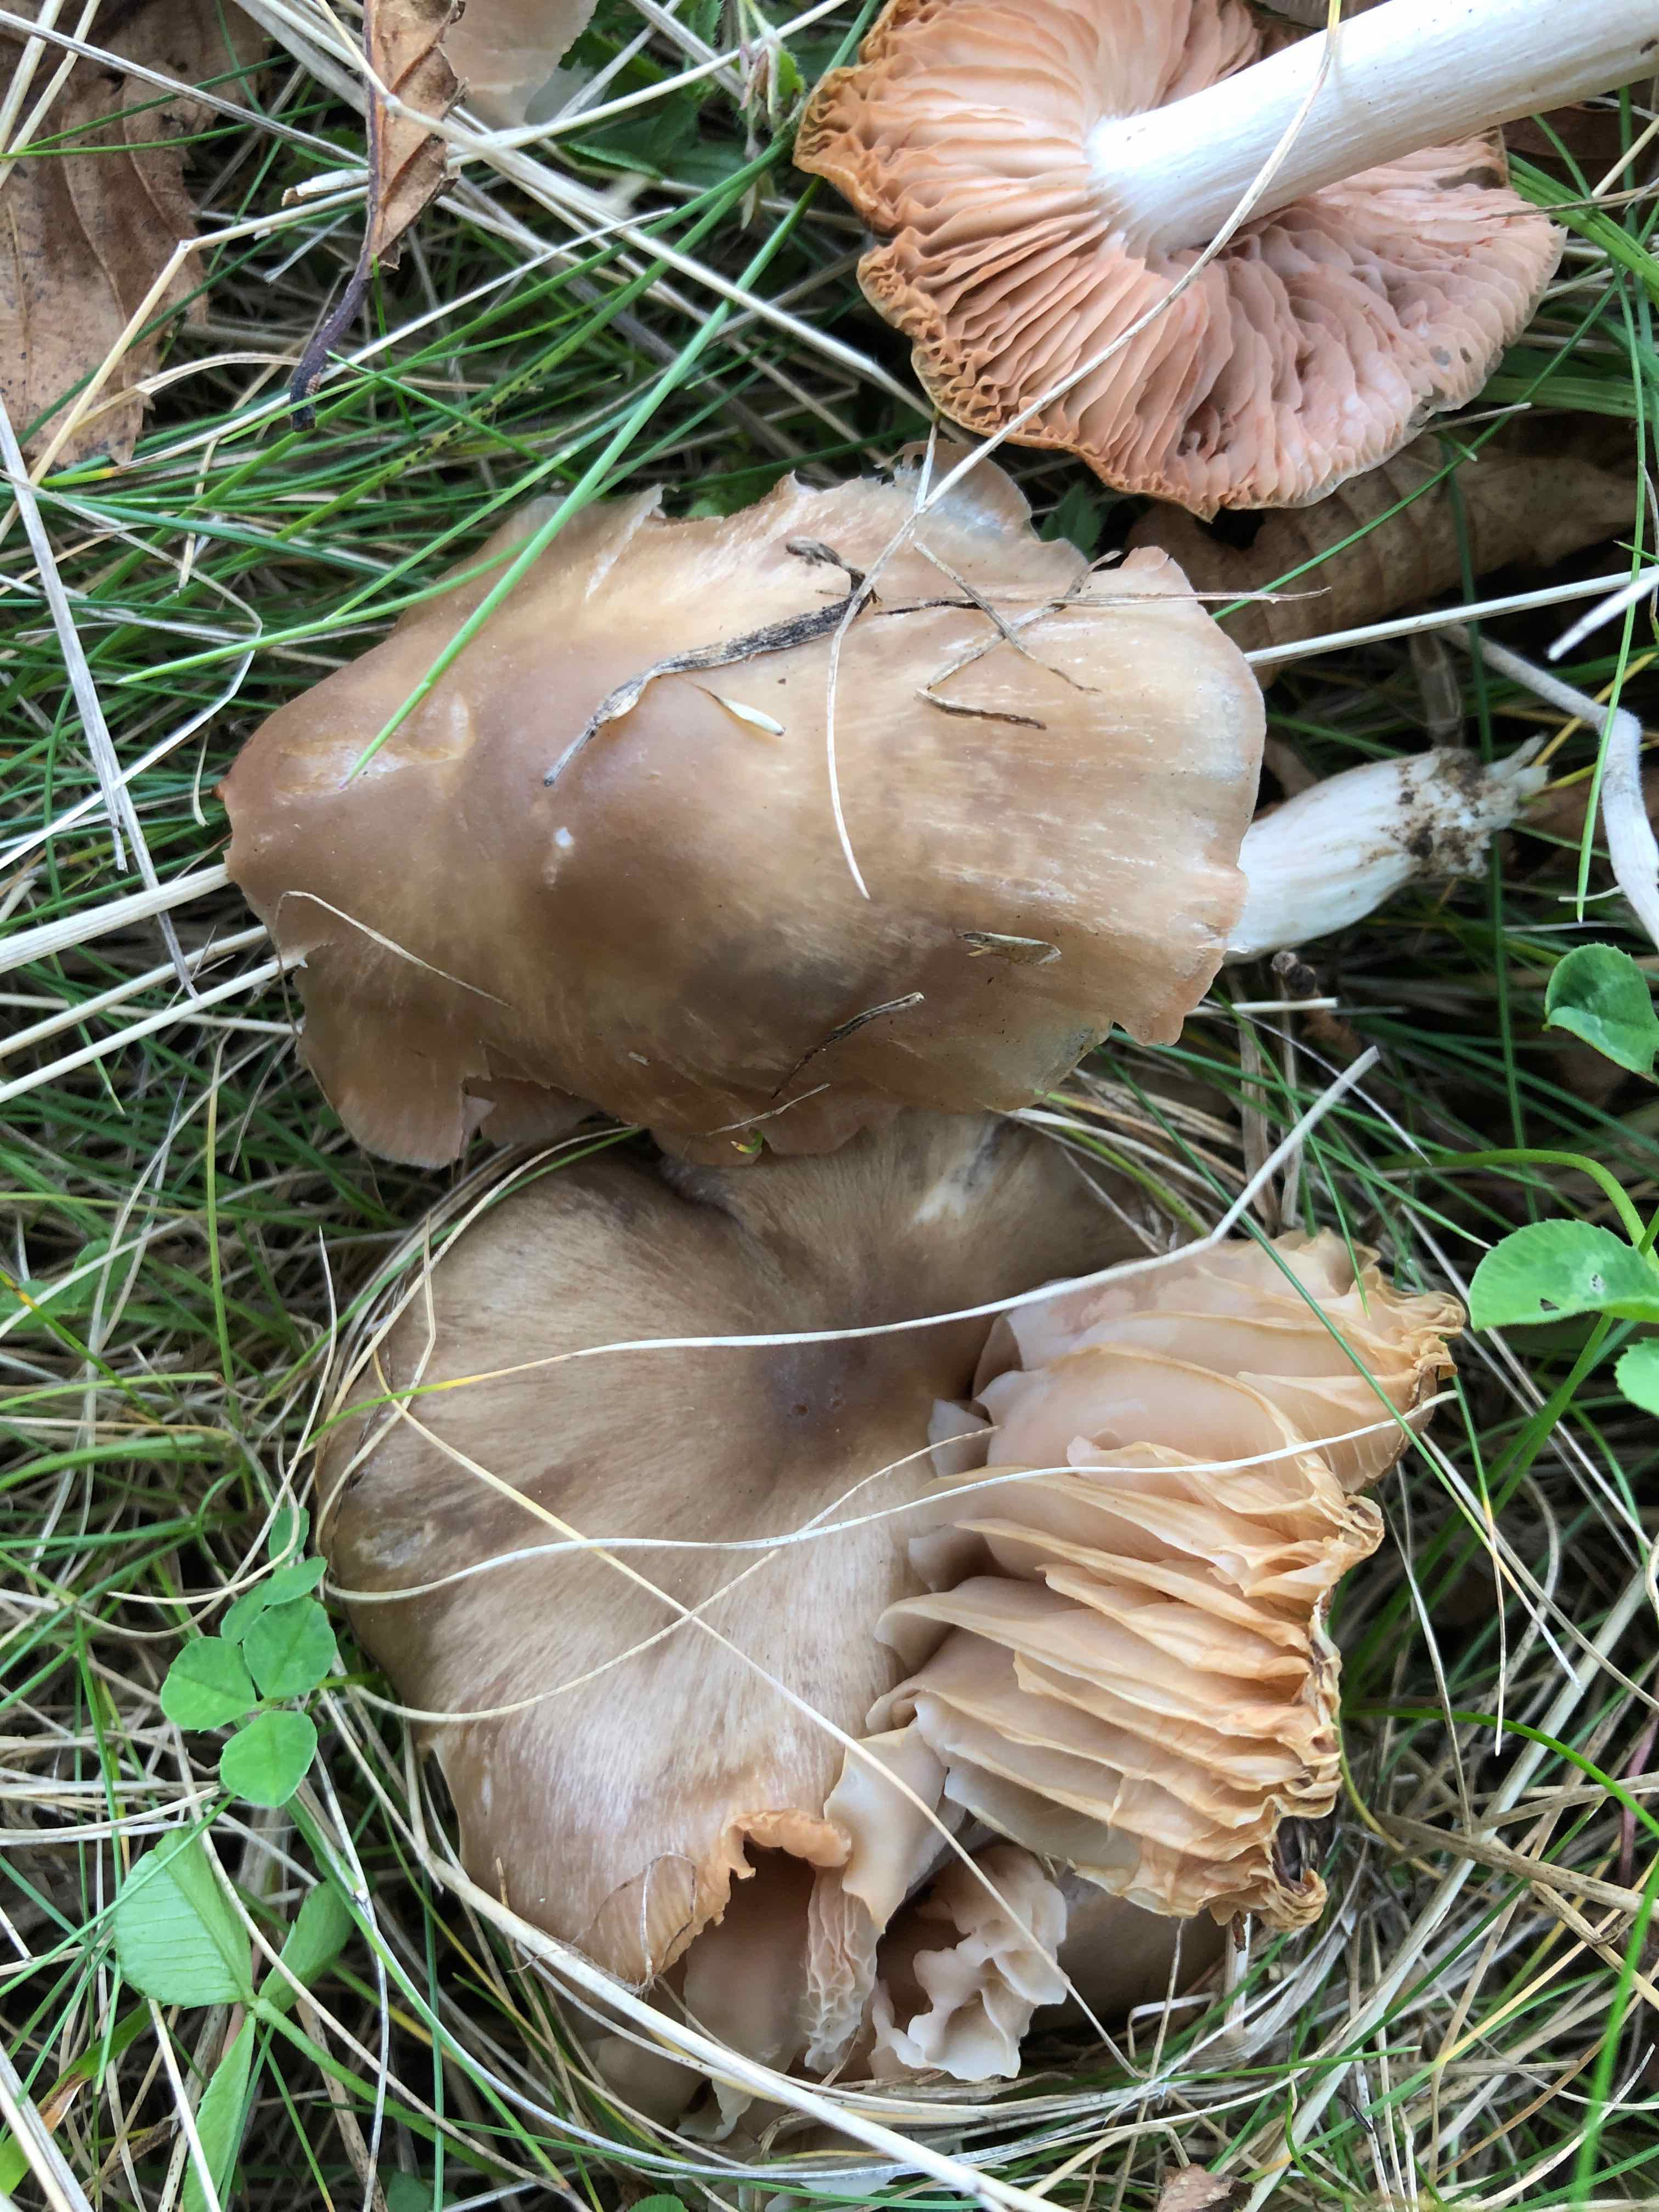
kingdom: Fungi
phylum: Basidiomycota
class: Agaricomycetes
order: Agaricales
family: Entolomataceae
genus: Entoloma
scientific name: Entoloma lividoalbum
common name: lysstokket rødblad
